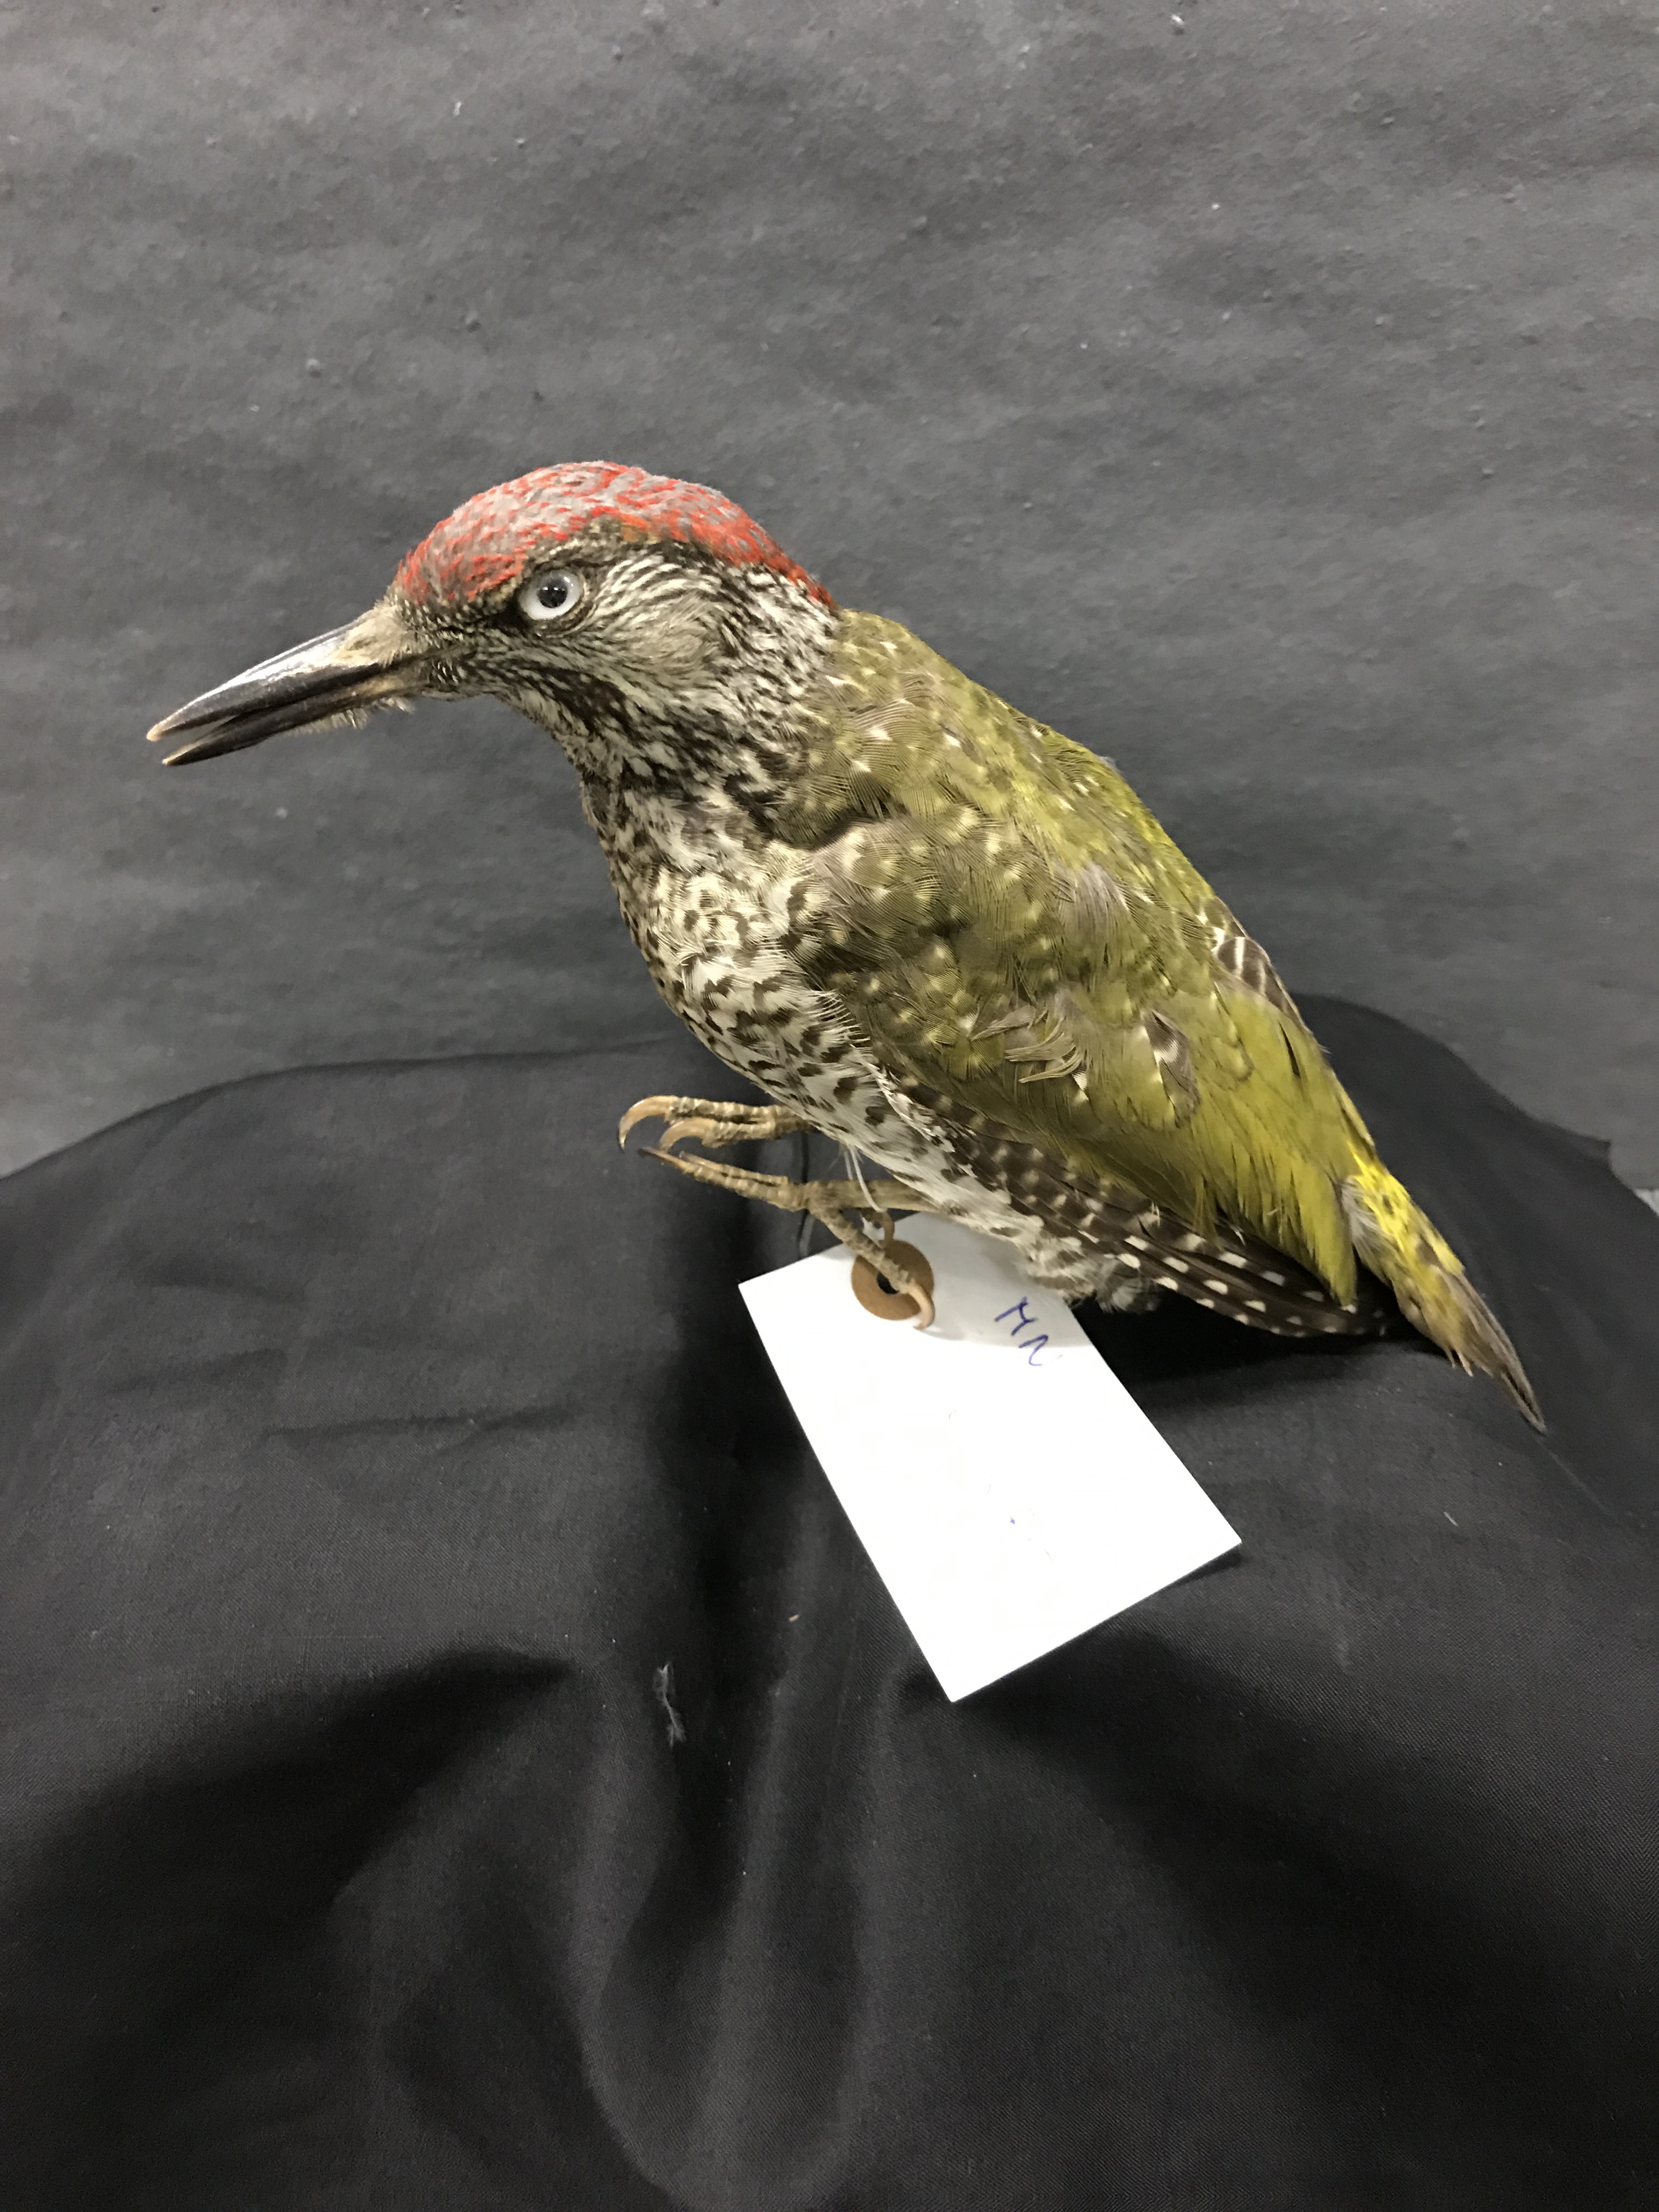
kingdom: Animalia
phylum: Chordata
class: Aves
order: Piciformes
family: Picidae
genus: Picus
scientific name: Picus viridis
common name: European green woodpecker
